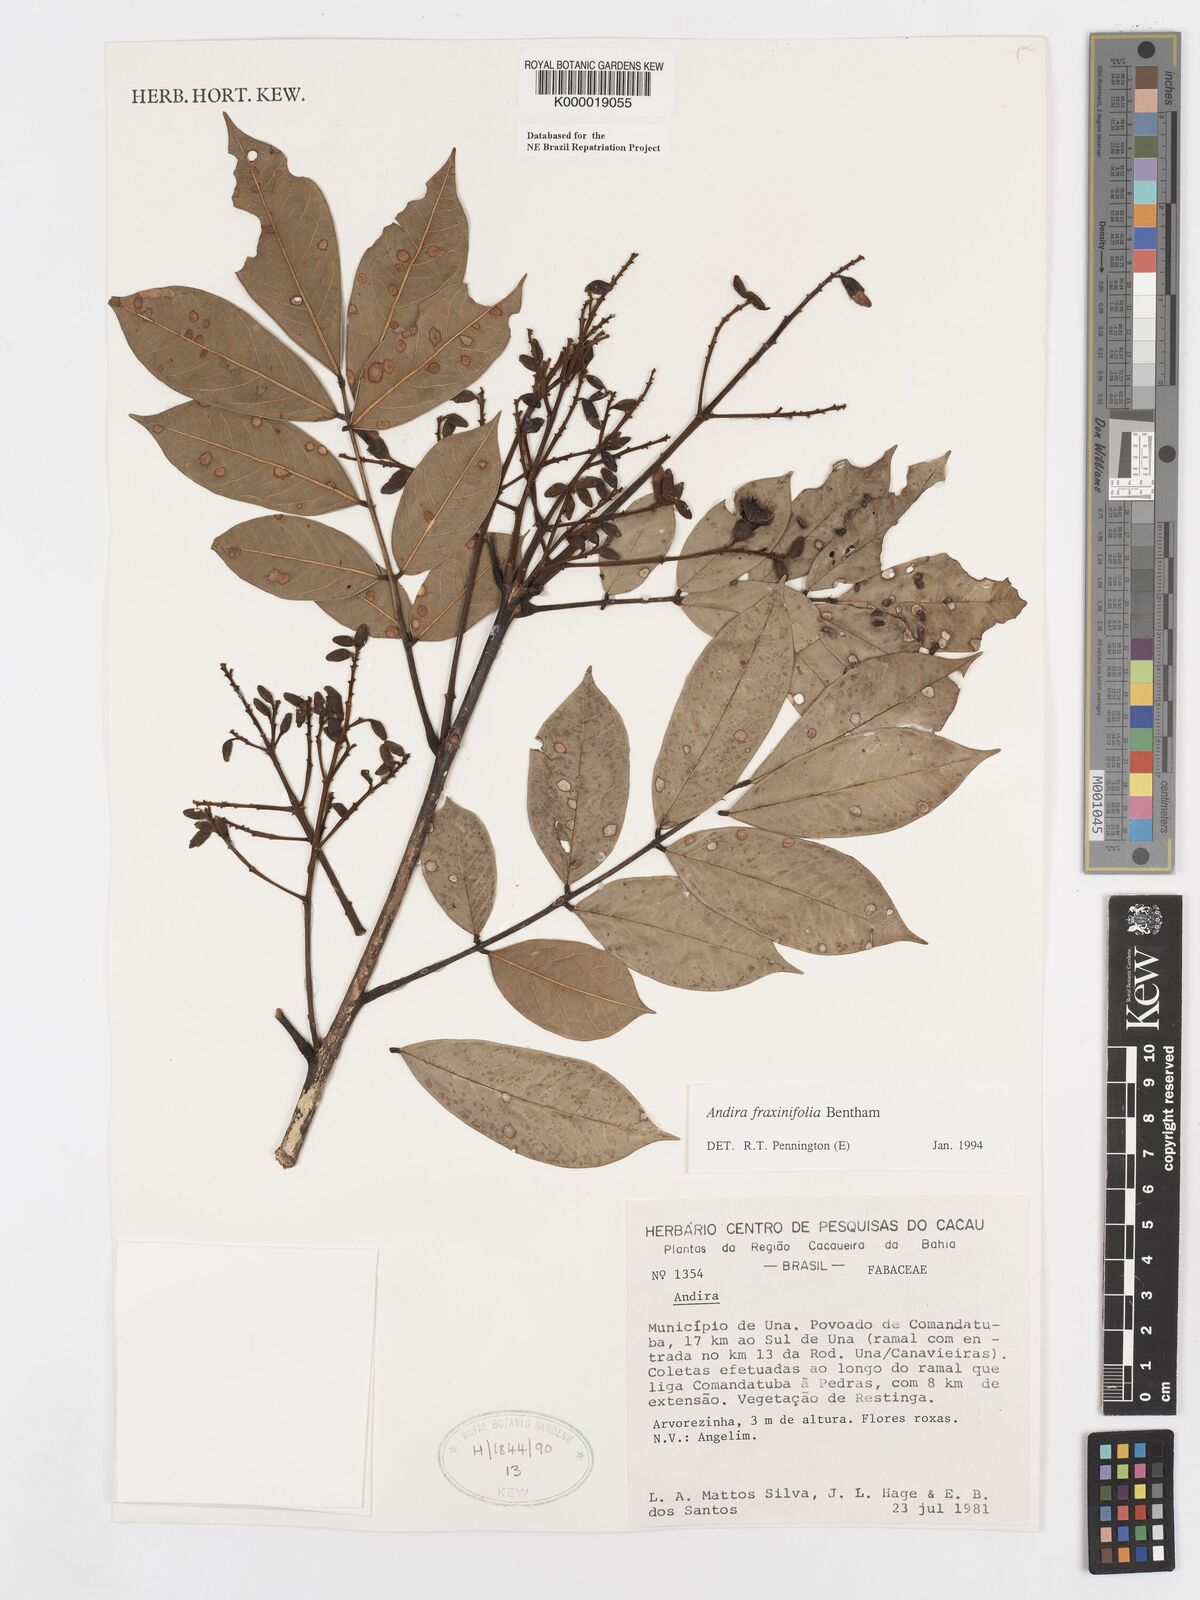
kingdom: Plantae
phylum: Tracheophyta
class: Magnoliopsida
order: Fabales
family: Fabaceae
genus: Andira
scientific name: Andira fraxinifolia
